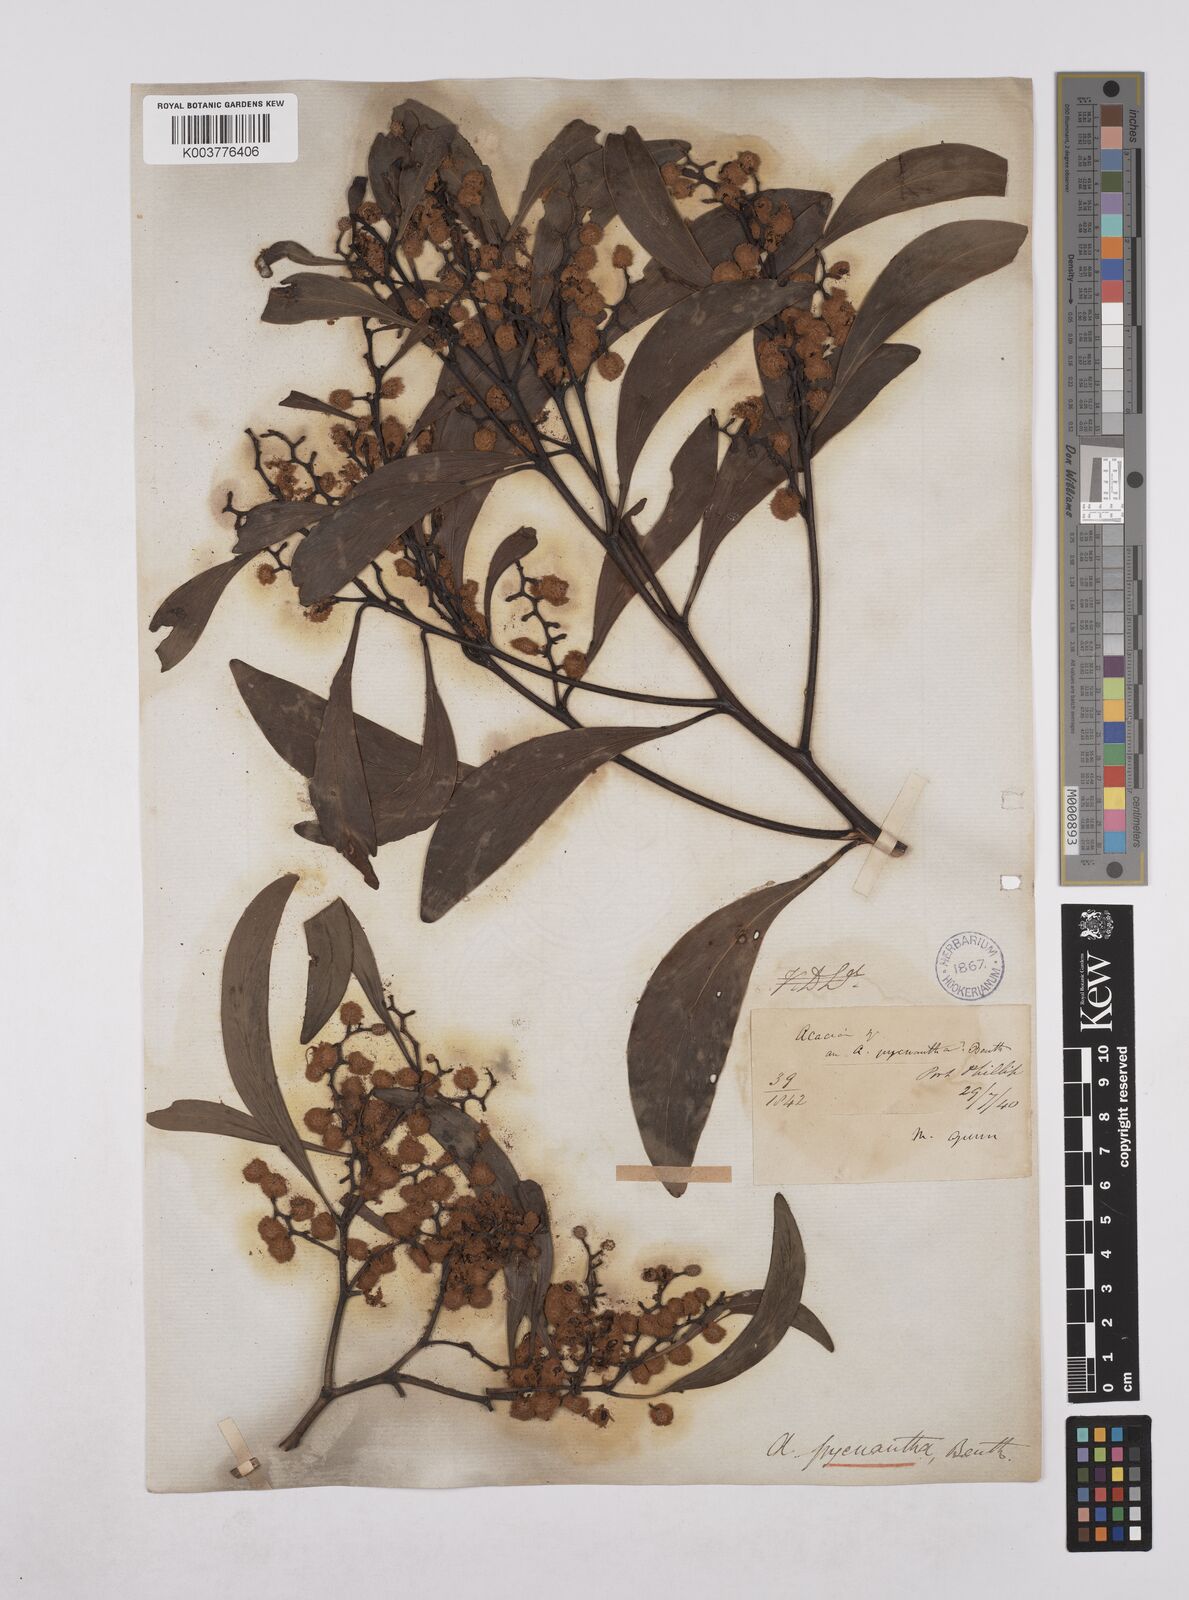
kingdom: Plantae
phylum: Tracheophyta
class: Magnoliopsida
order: Fabales
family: Fabaceae
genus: Acacia
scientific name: Acacia pycnantha
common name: Golden wattle
